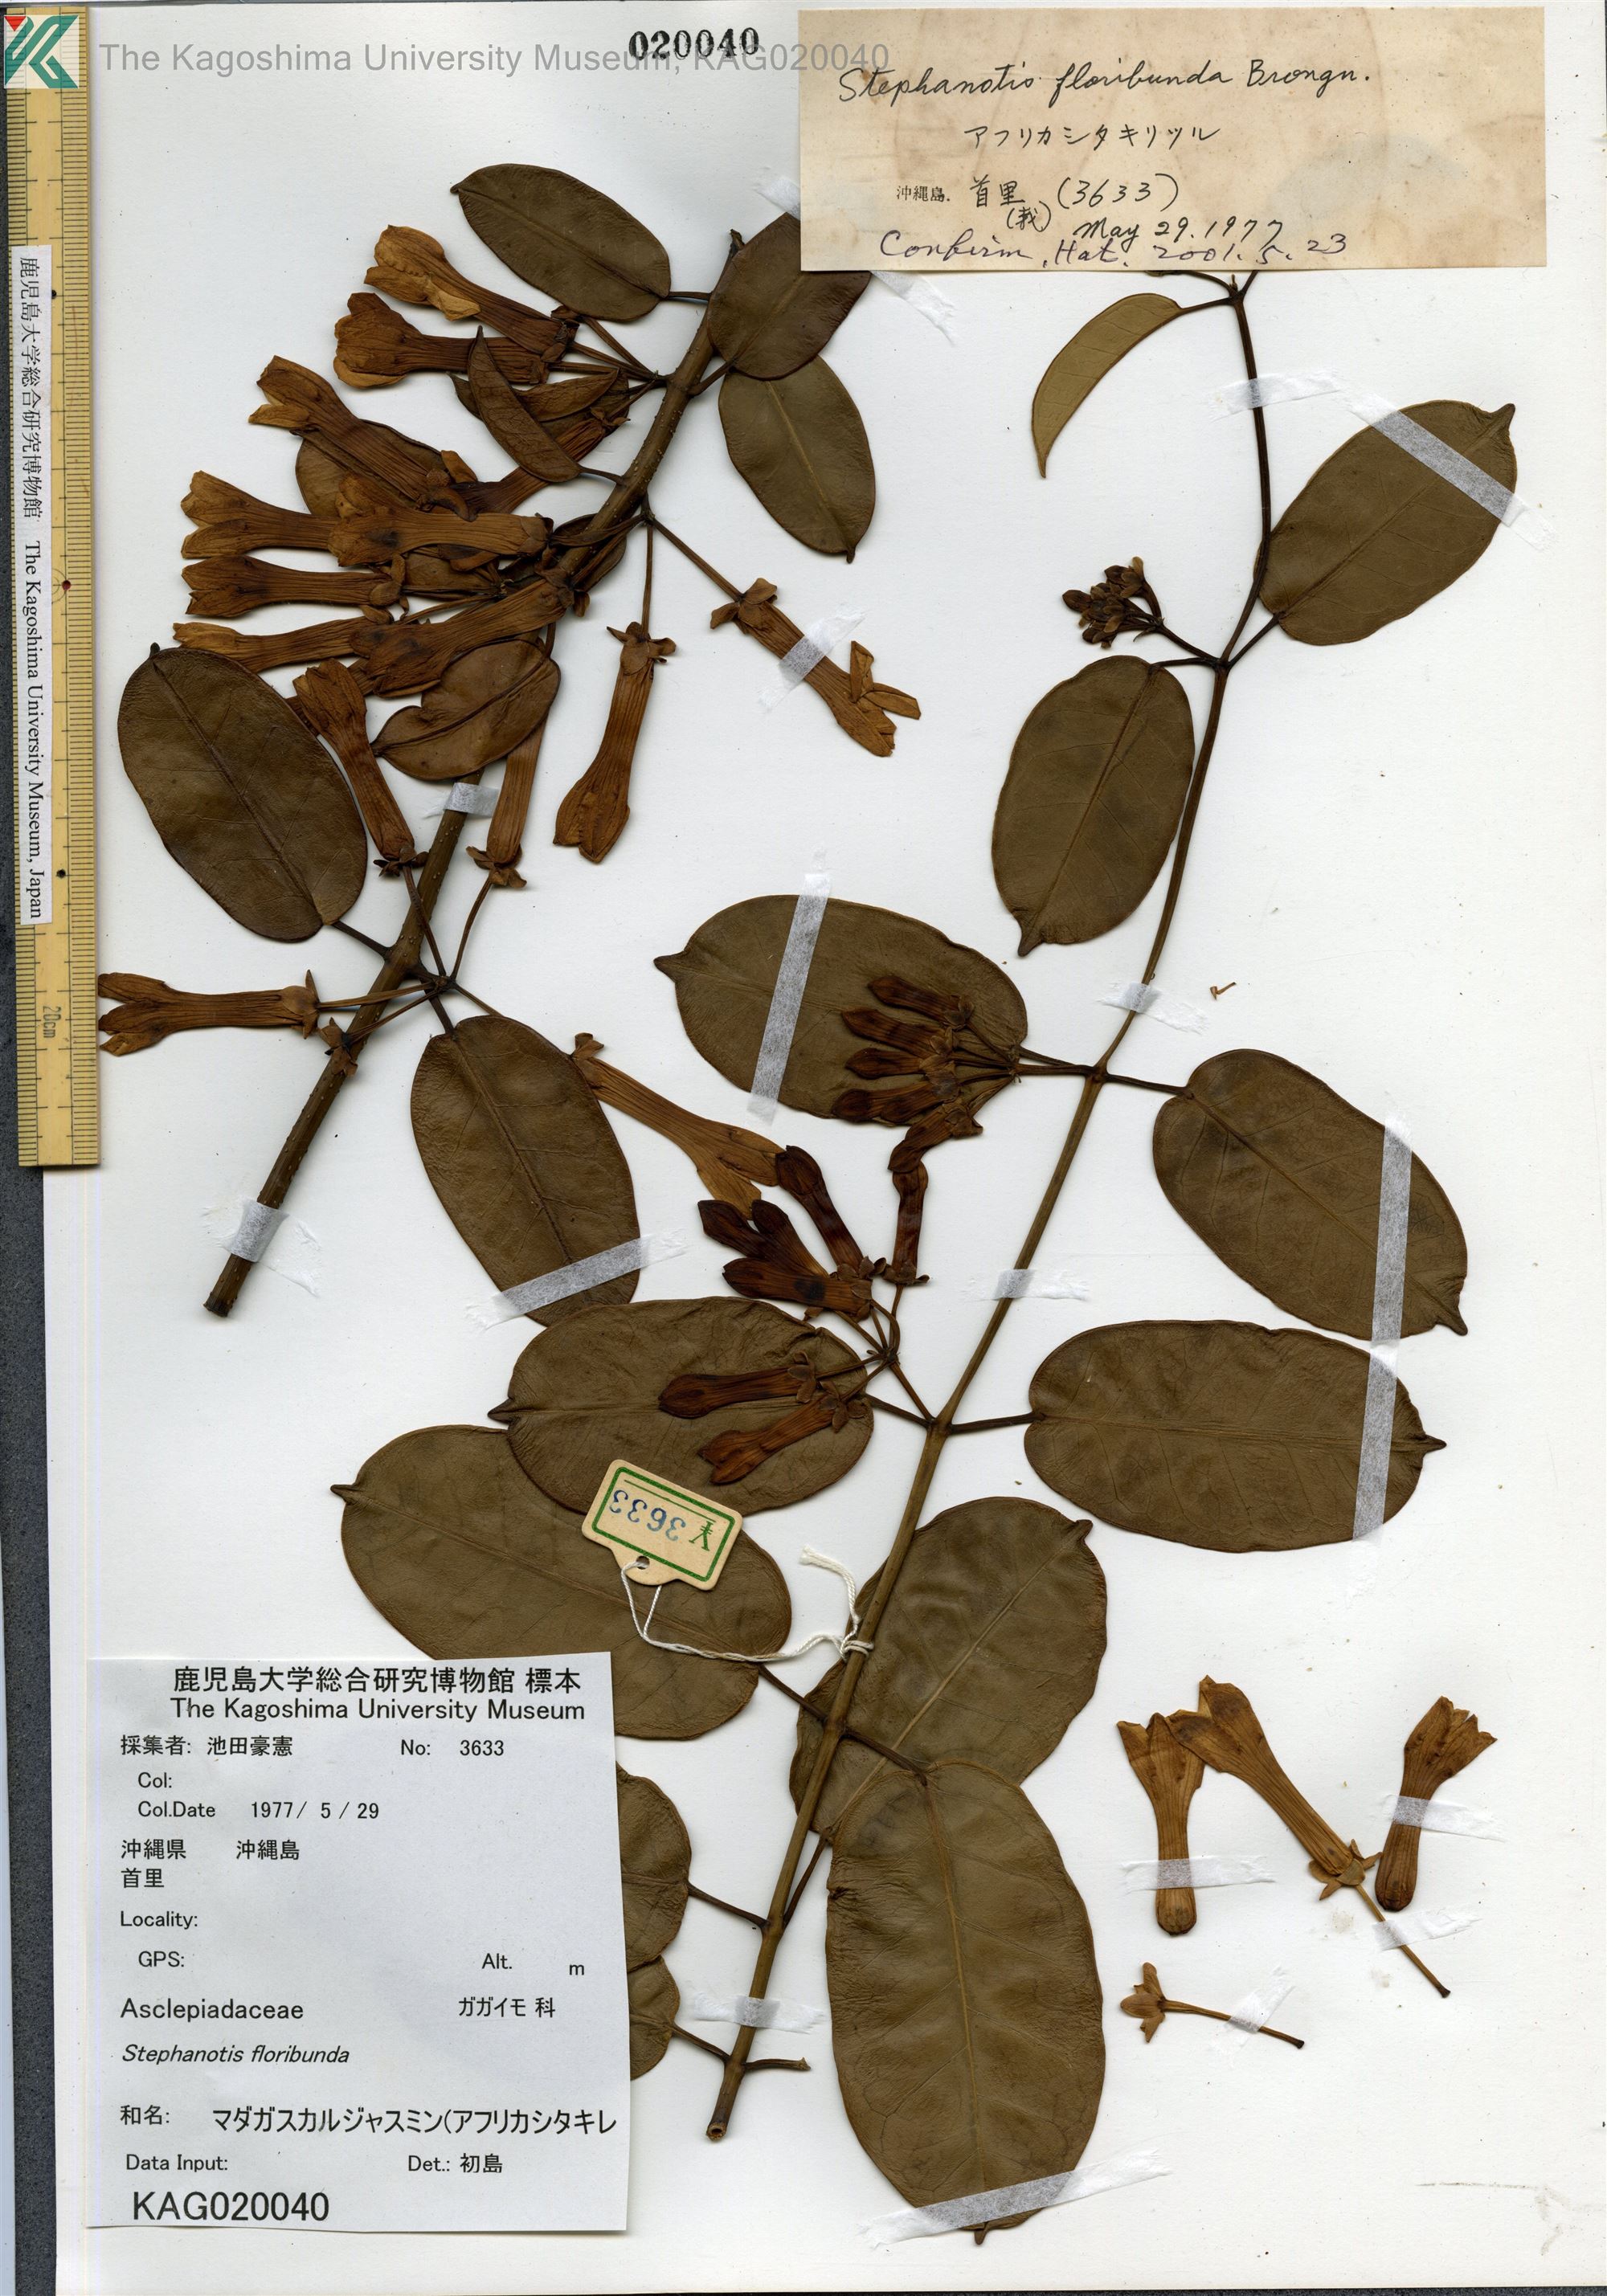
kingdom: Plantae
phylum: Tracheophyta
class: Magnoliopsida
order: Gentianales
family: Apocynaceae
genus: Stephanotis
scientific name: Stephanotis floribunda
